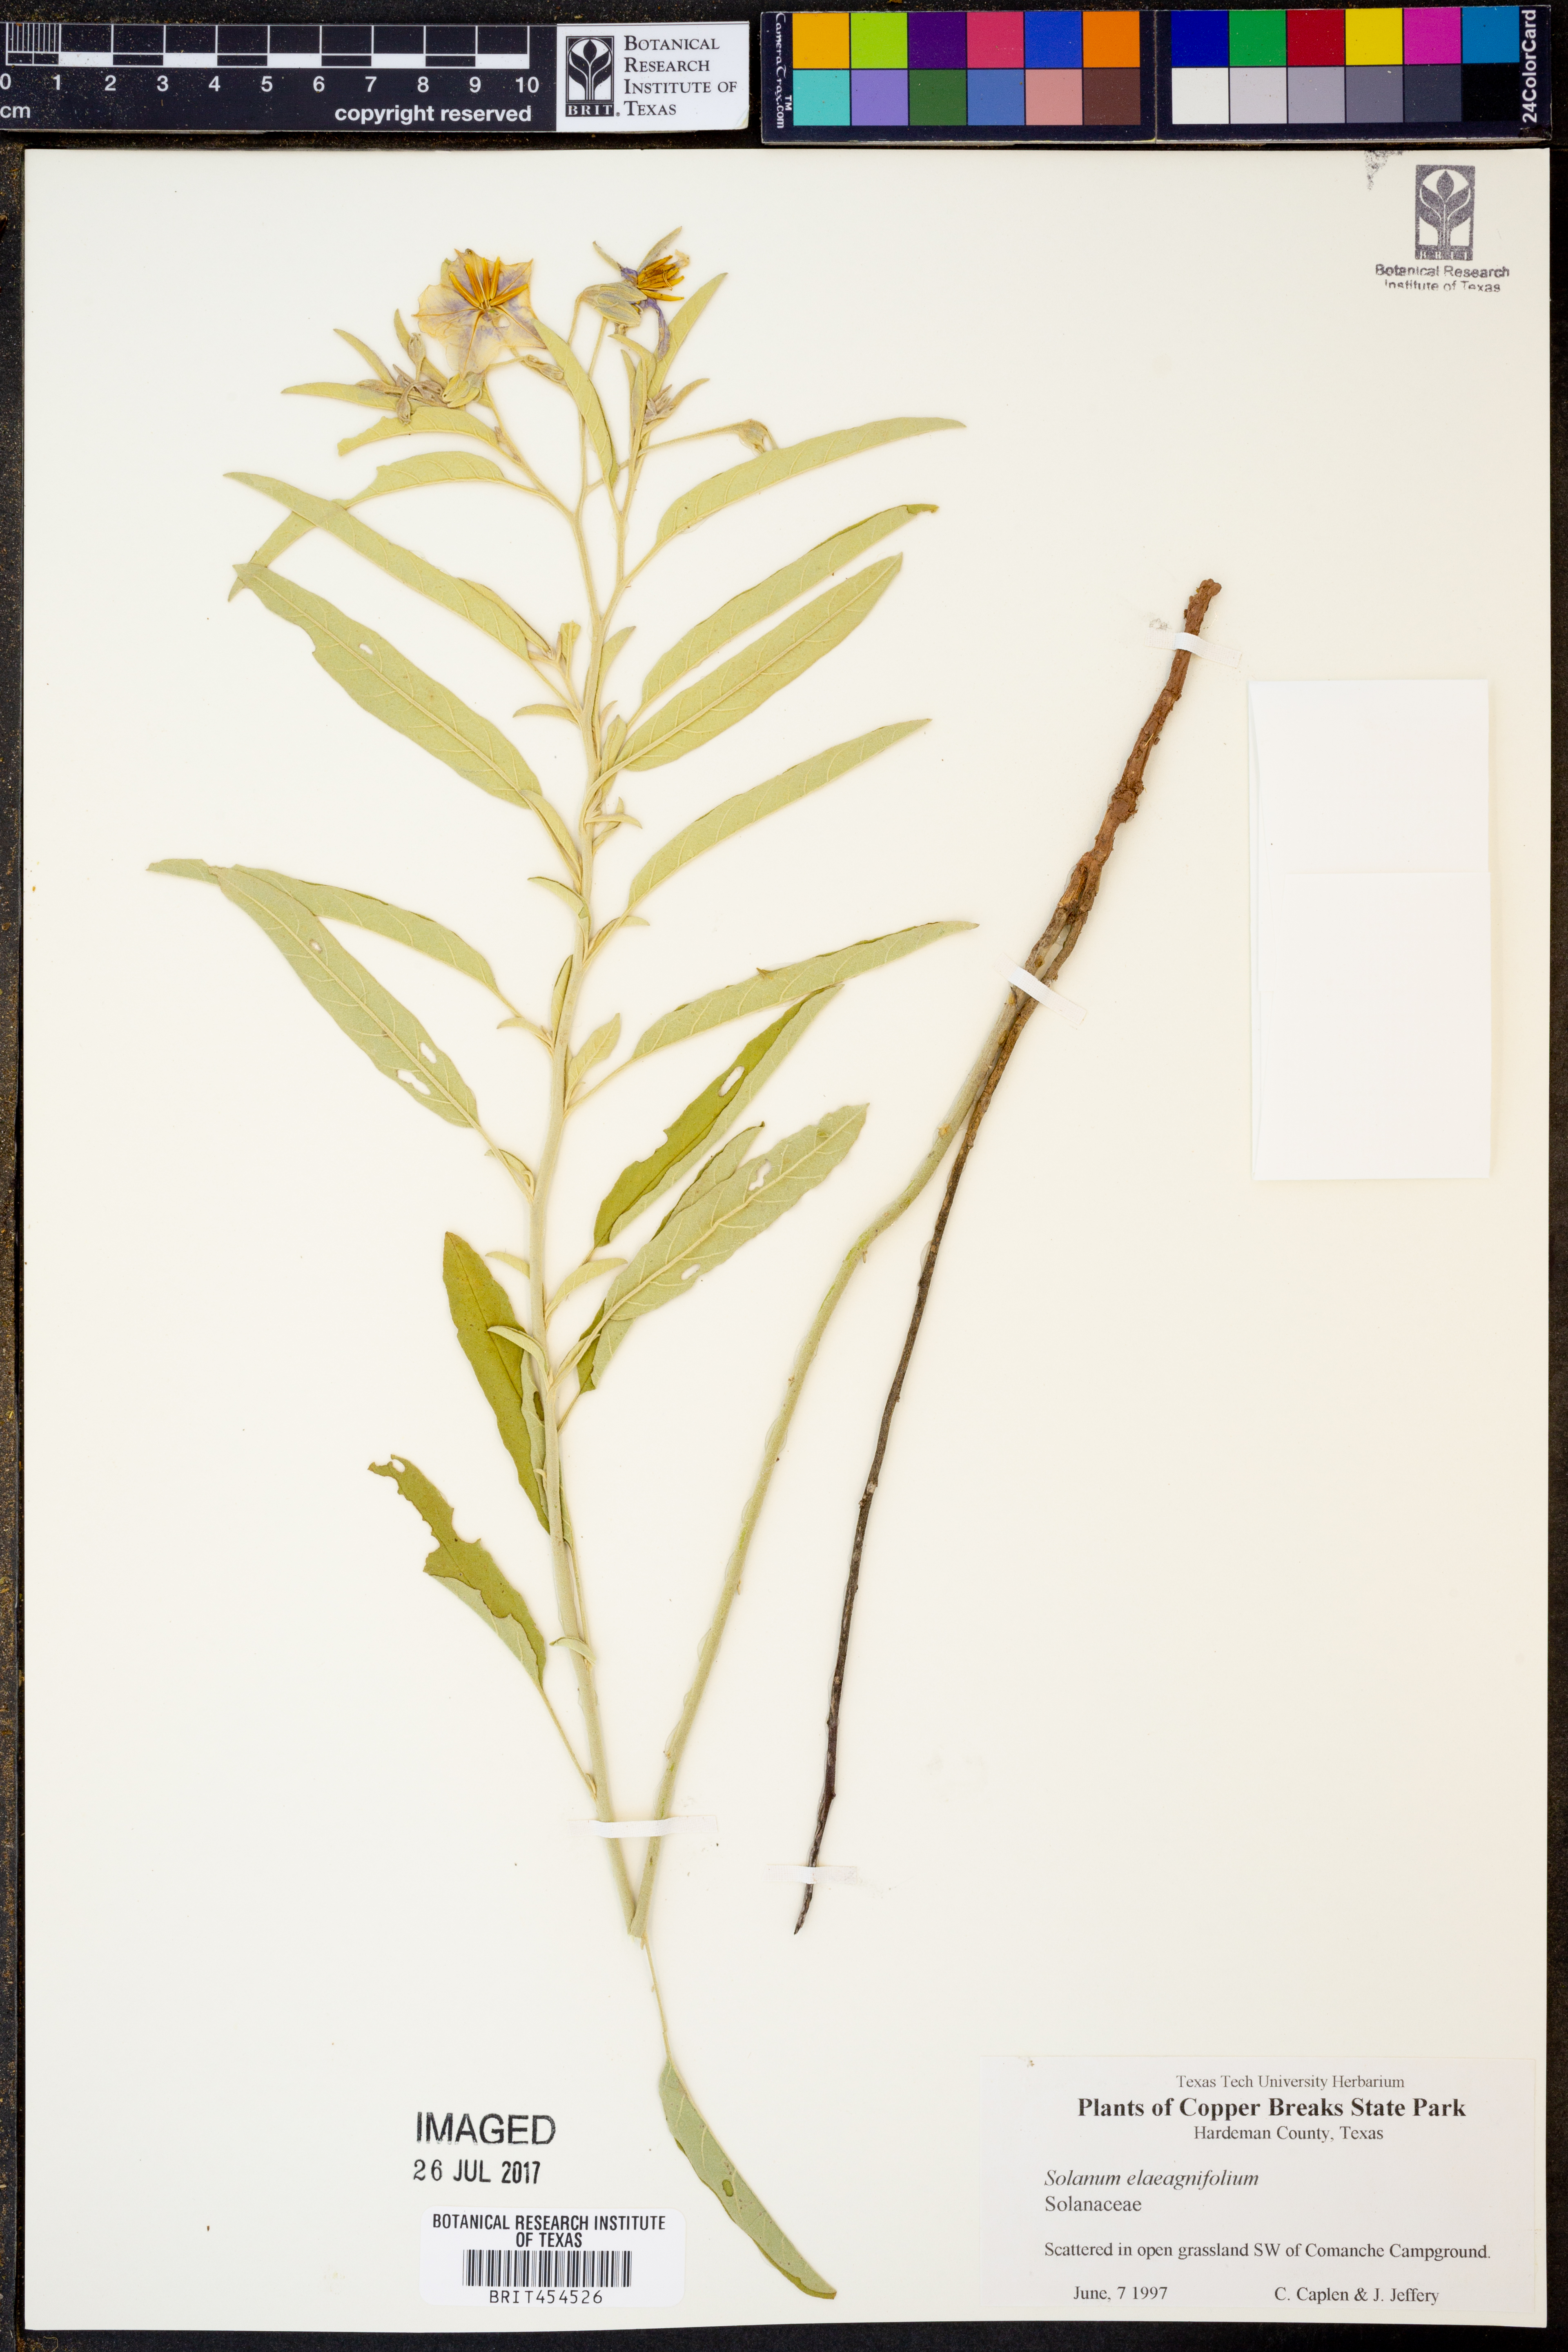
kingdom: Plantae
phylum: Tracheophyta
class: Magnoliopsida
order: Solanales
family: Solanaceae
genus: Solanum
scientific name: Solanum elaeagnifolium
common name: Silverleaf nightshade
